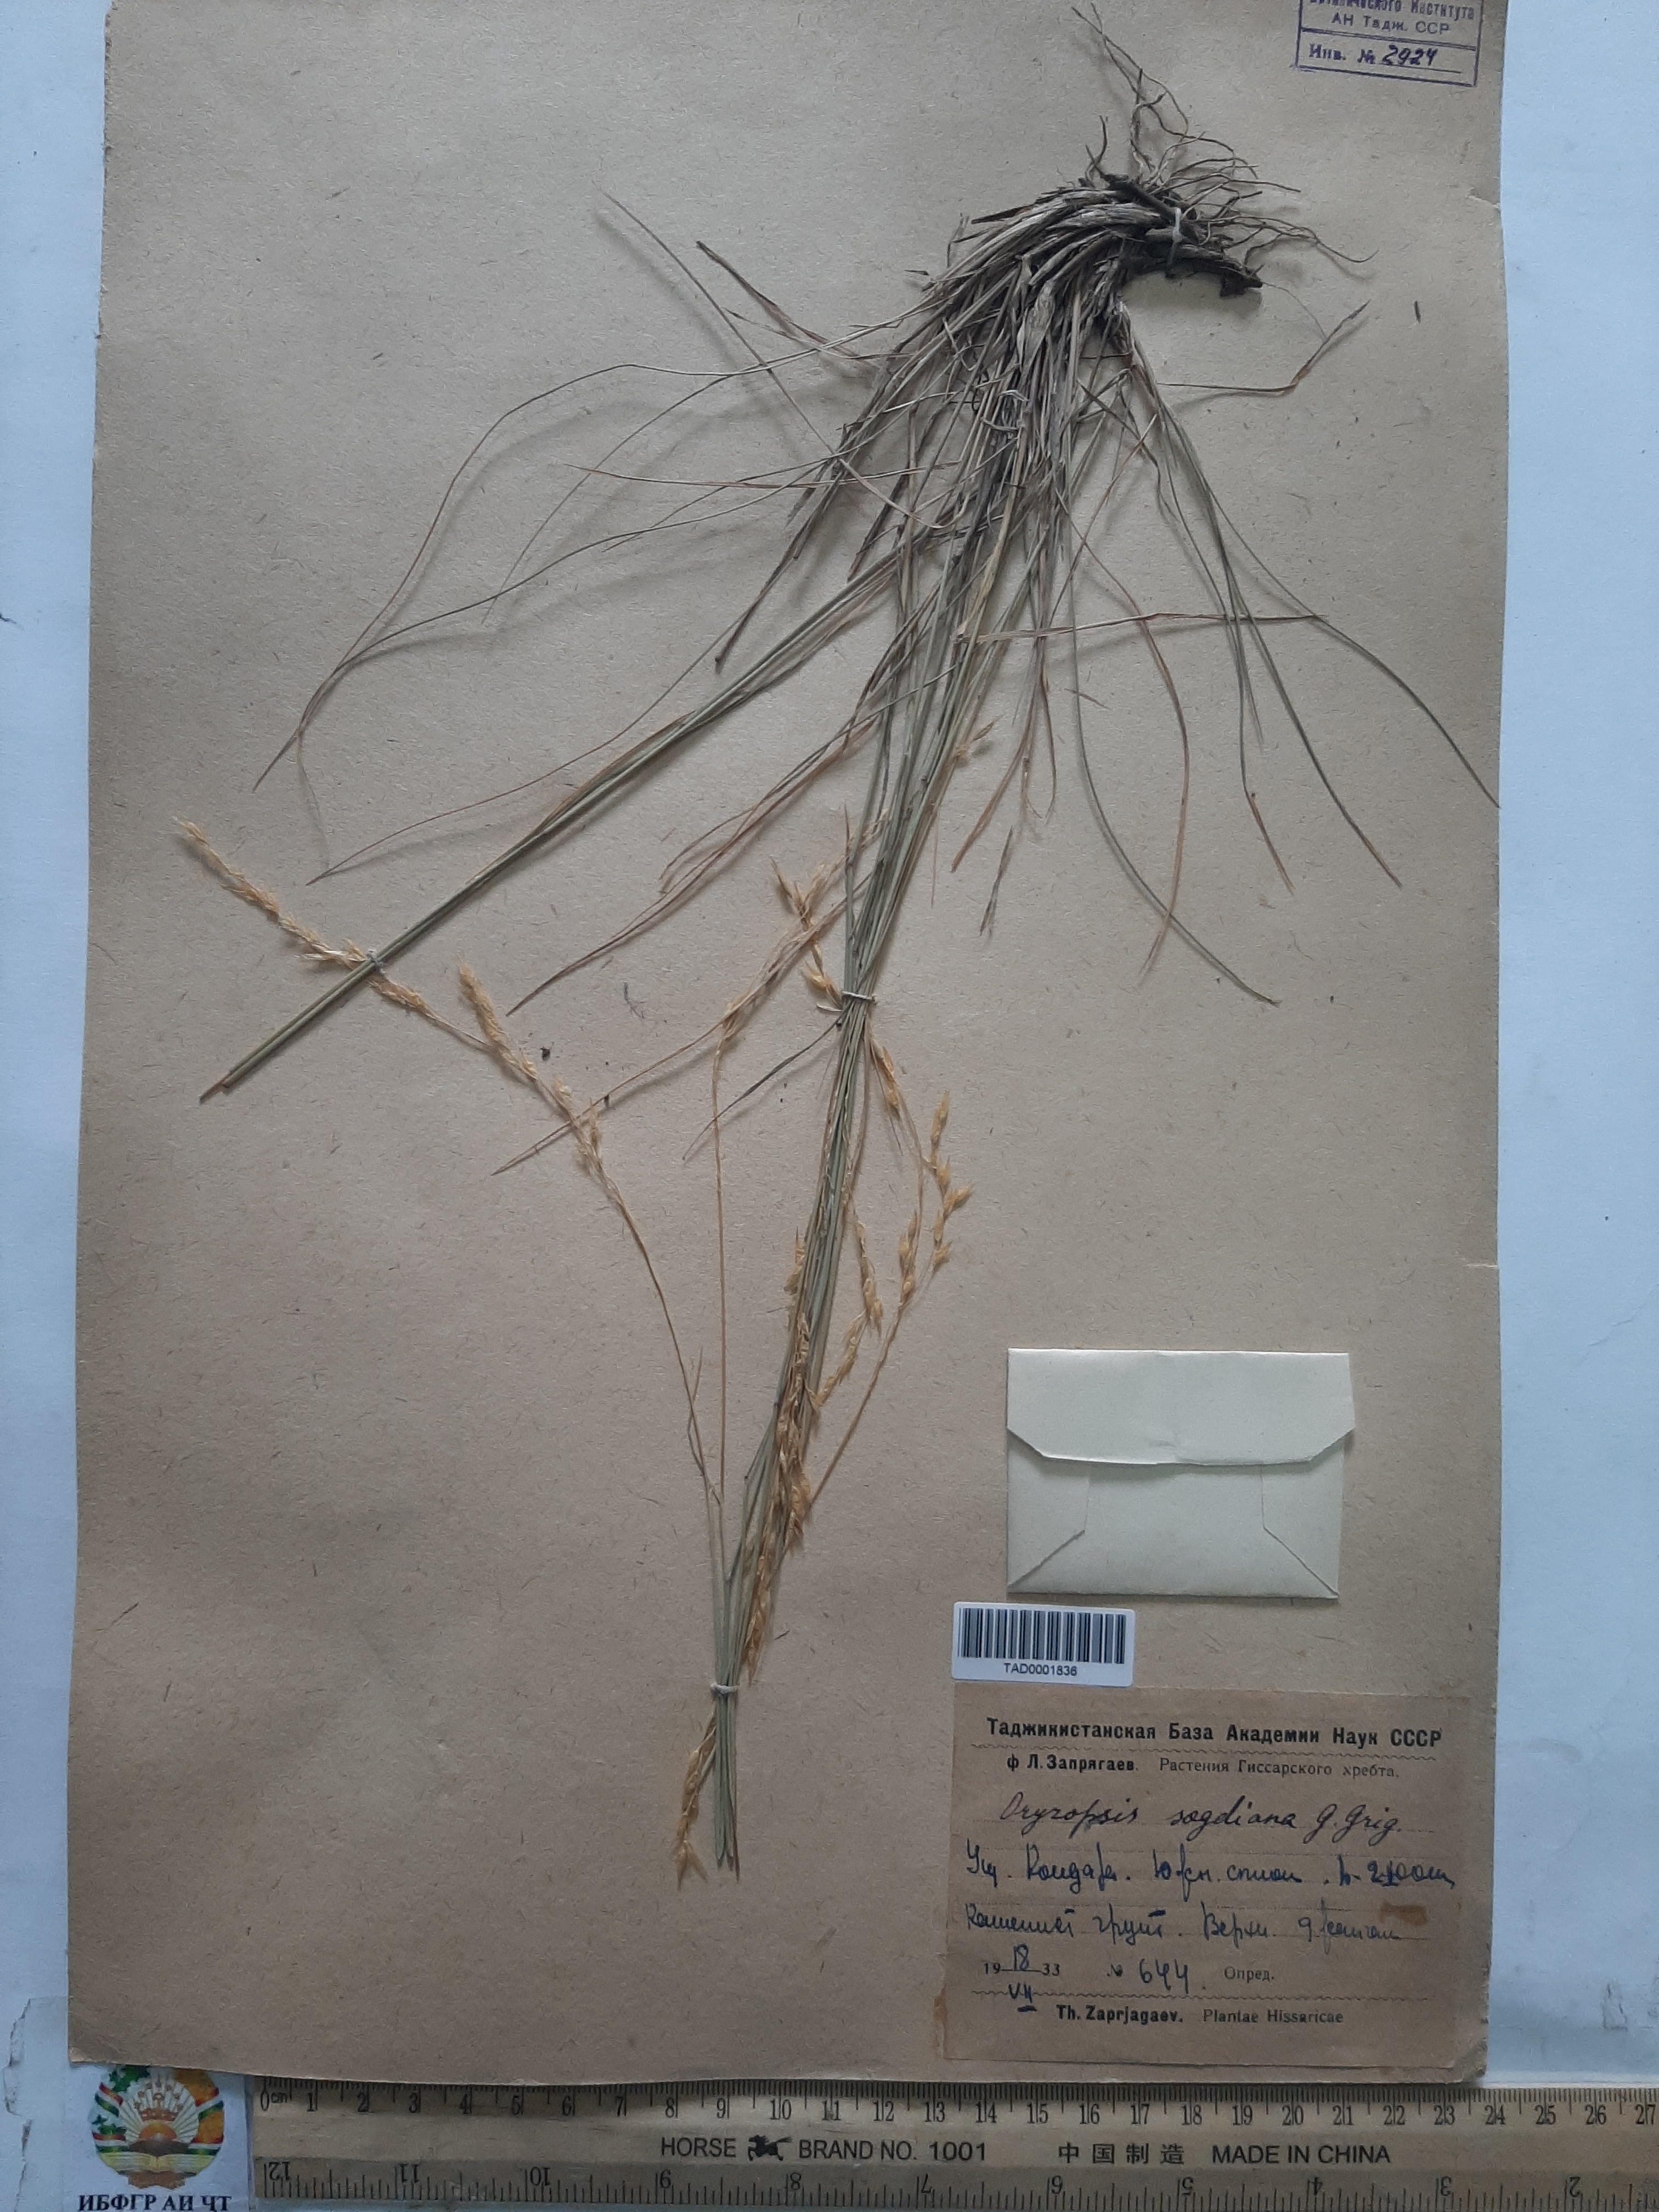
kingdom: Plantae
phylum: Tracheophyta
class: Liliopsida
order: Poales
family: Poaceae
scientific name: Poaceae
